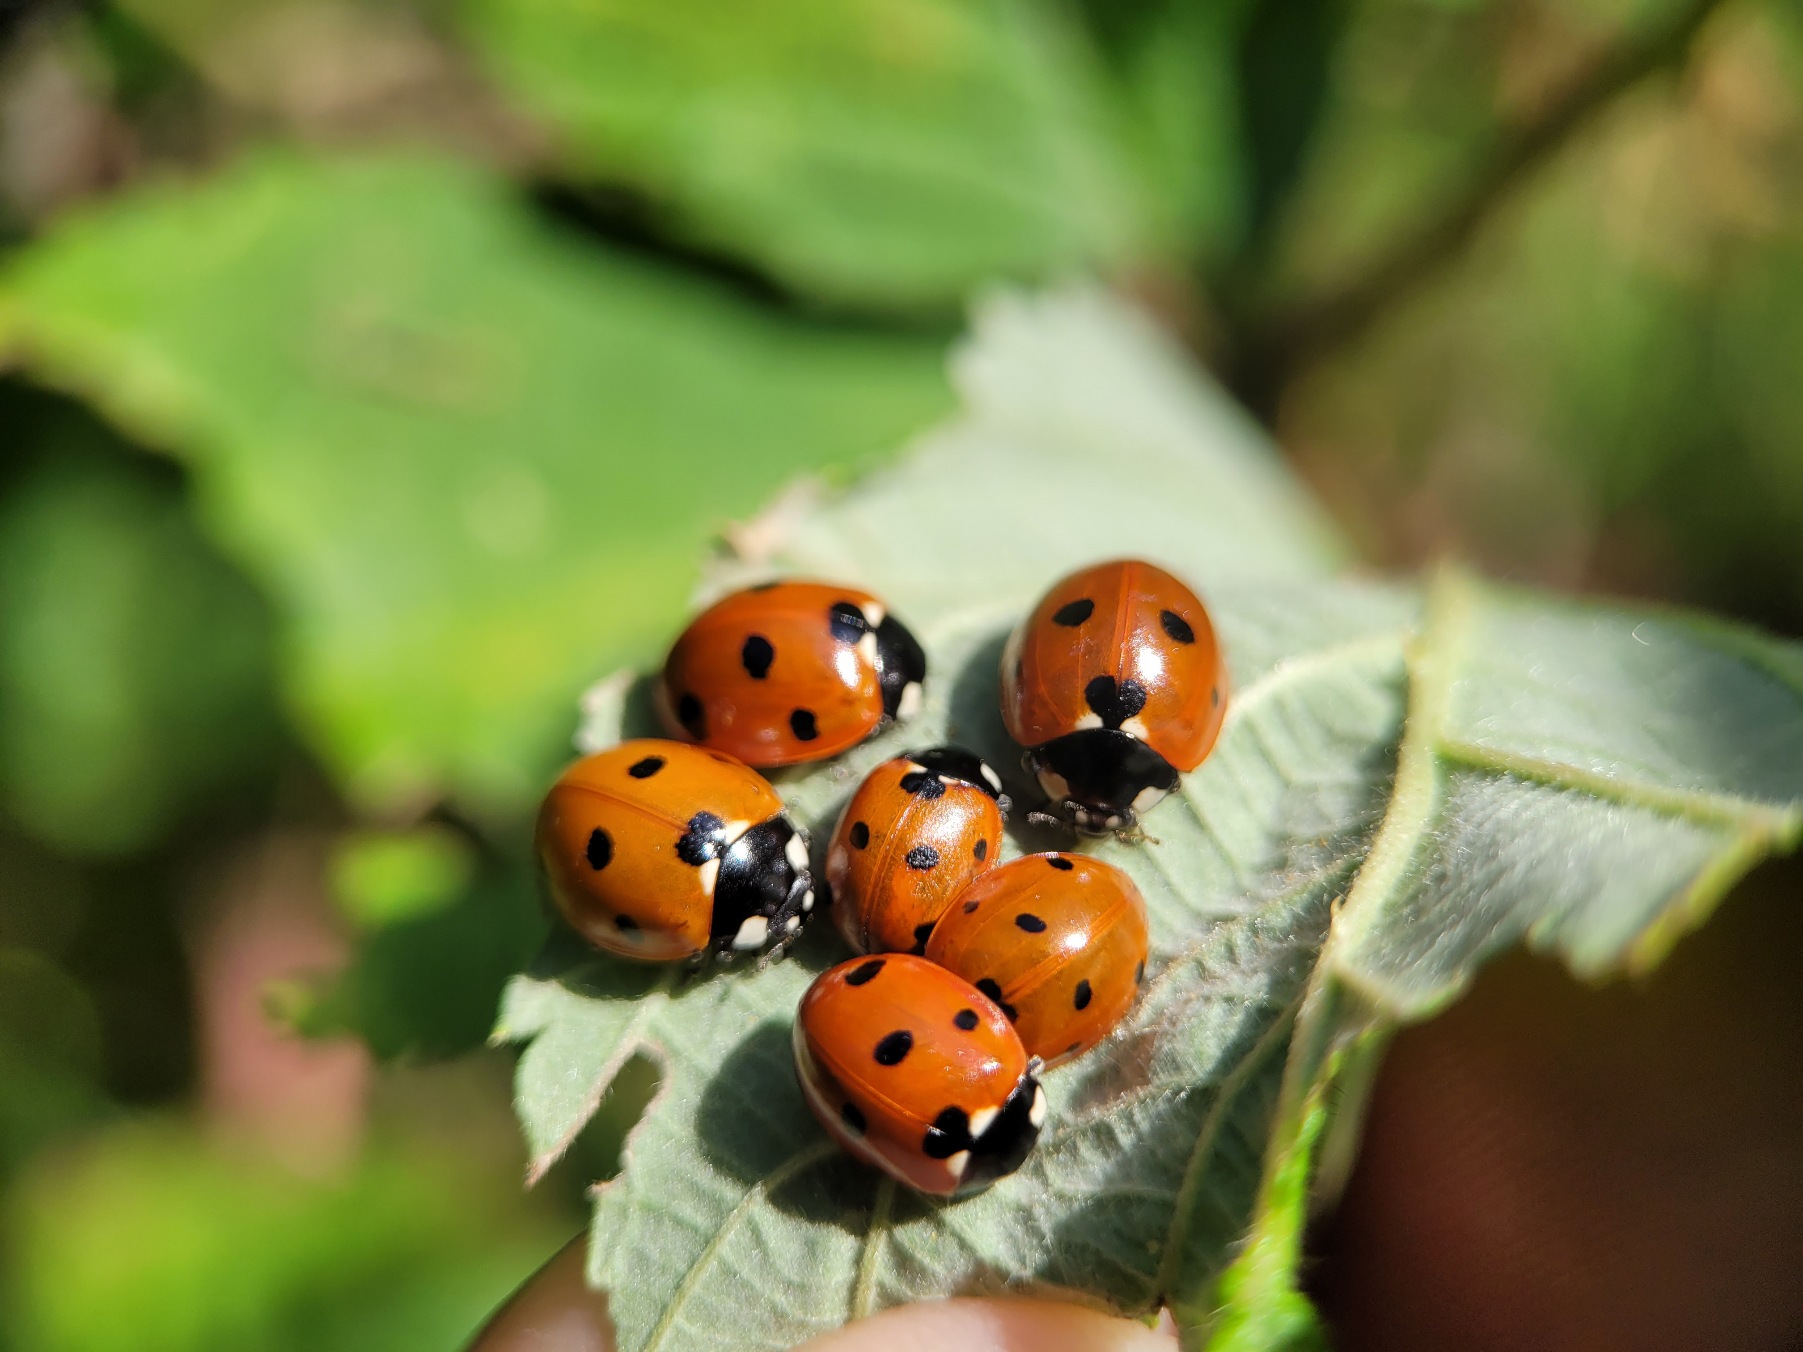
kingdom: Animalia
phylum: Arthropoda
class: Insecta
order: Coleoptera
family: Coccinellidae
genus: Coccinella
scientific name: Coccinella septempunctata
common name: Syvplettet mariehøne
